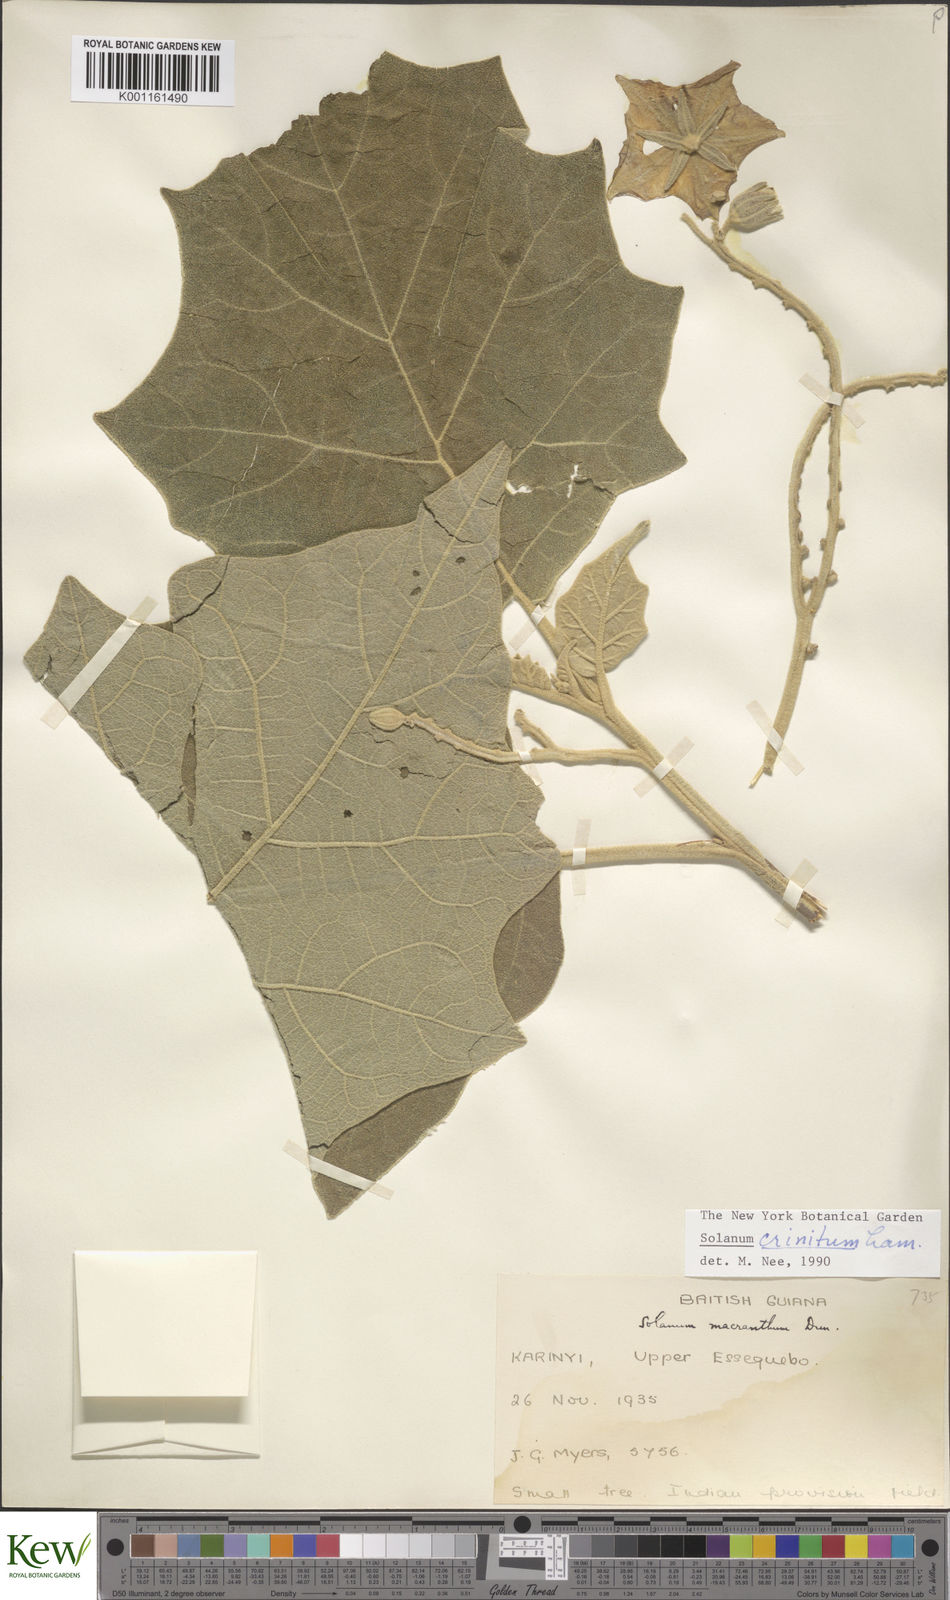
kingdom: Plantae
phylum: Tracheophyta
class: Magnoliopsida
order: Solanales
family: Solanaceae
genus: Solanum
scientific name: Solanum crinitum
